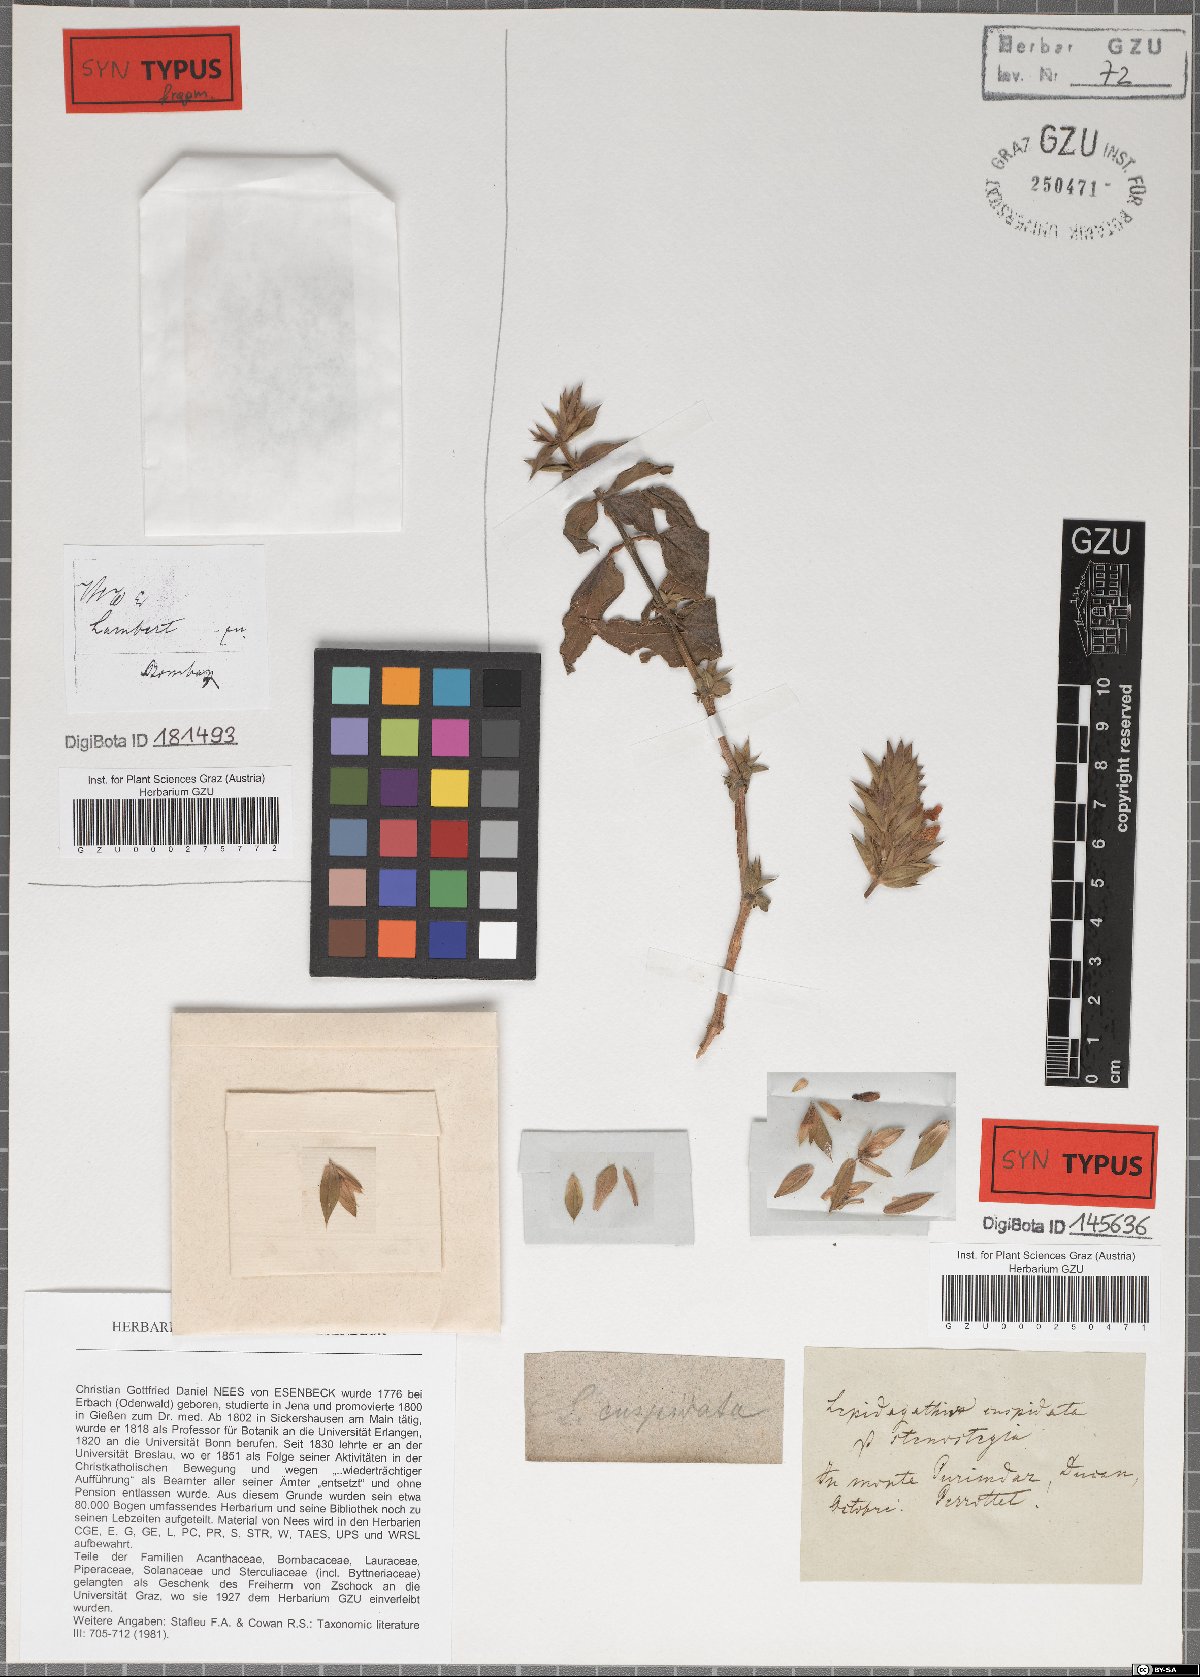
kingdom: Plantae
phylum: Tracheophyta
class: Magnoliopsida
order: Lamiales
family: Acanthaceae
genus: Lepidagathis
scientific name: Lepidagathis cuspidata
